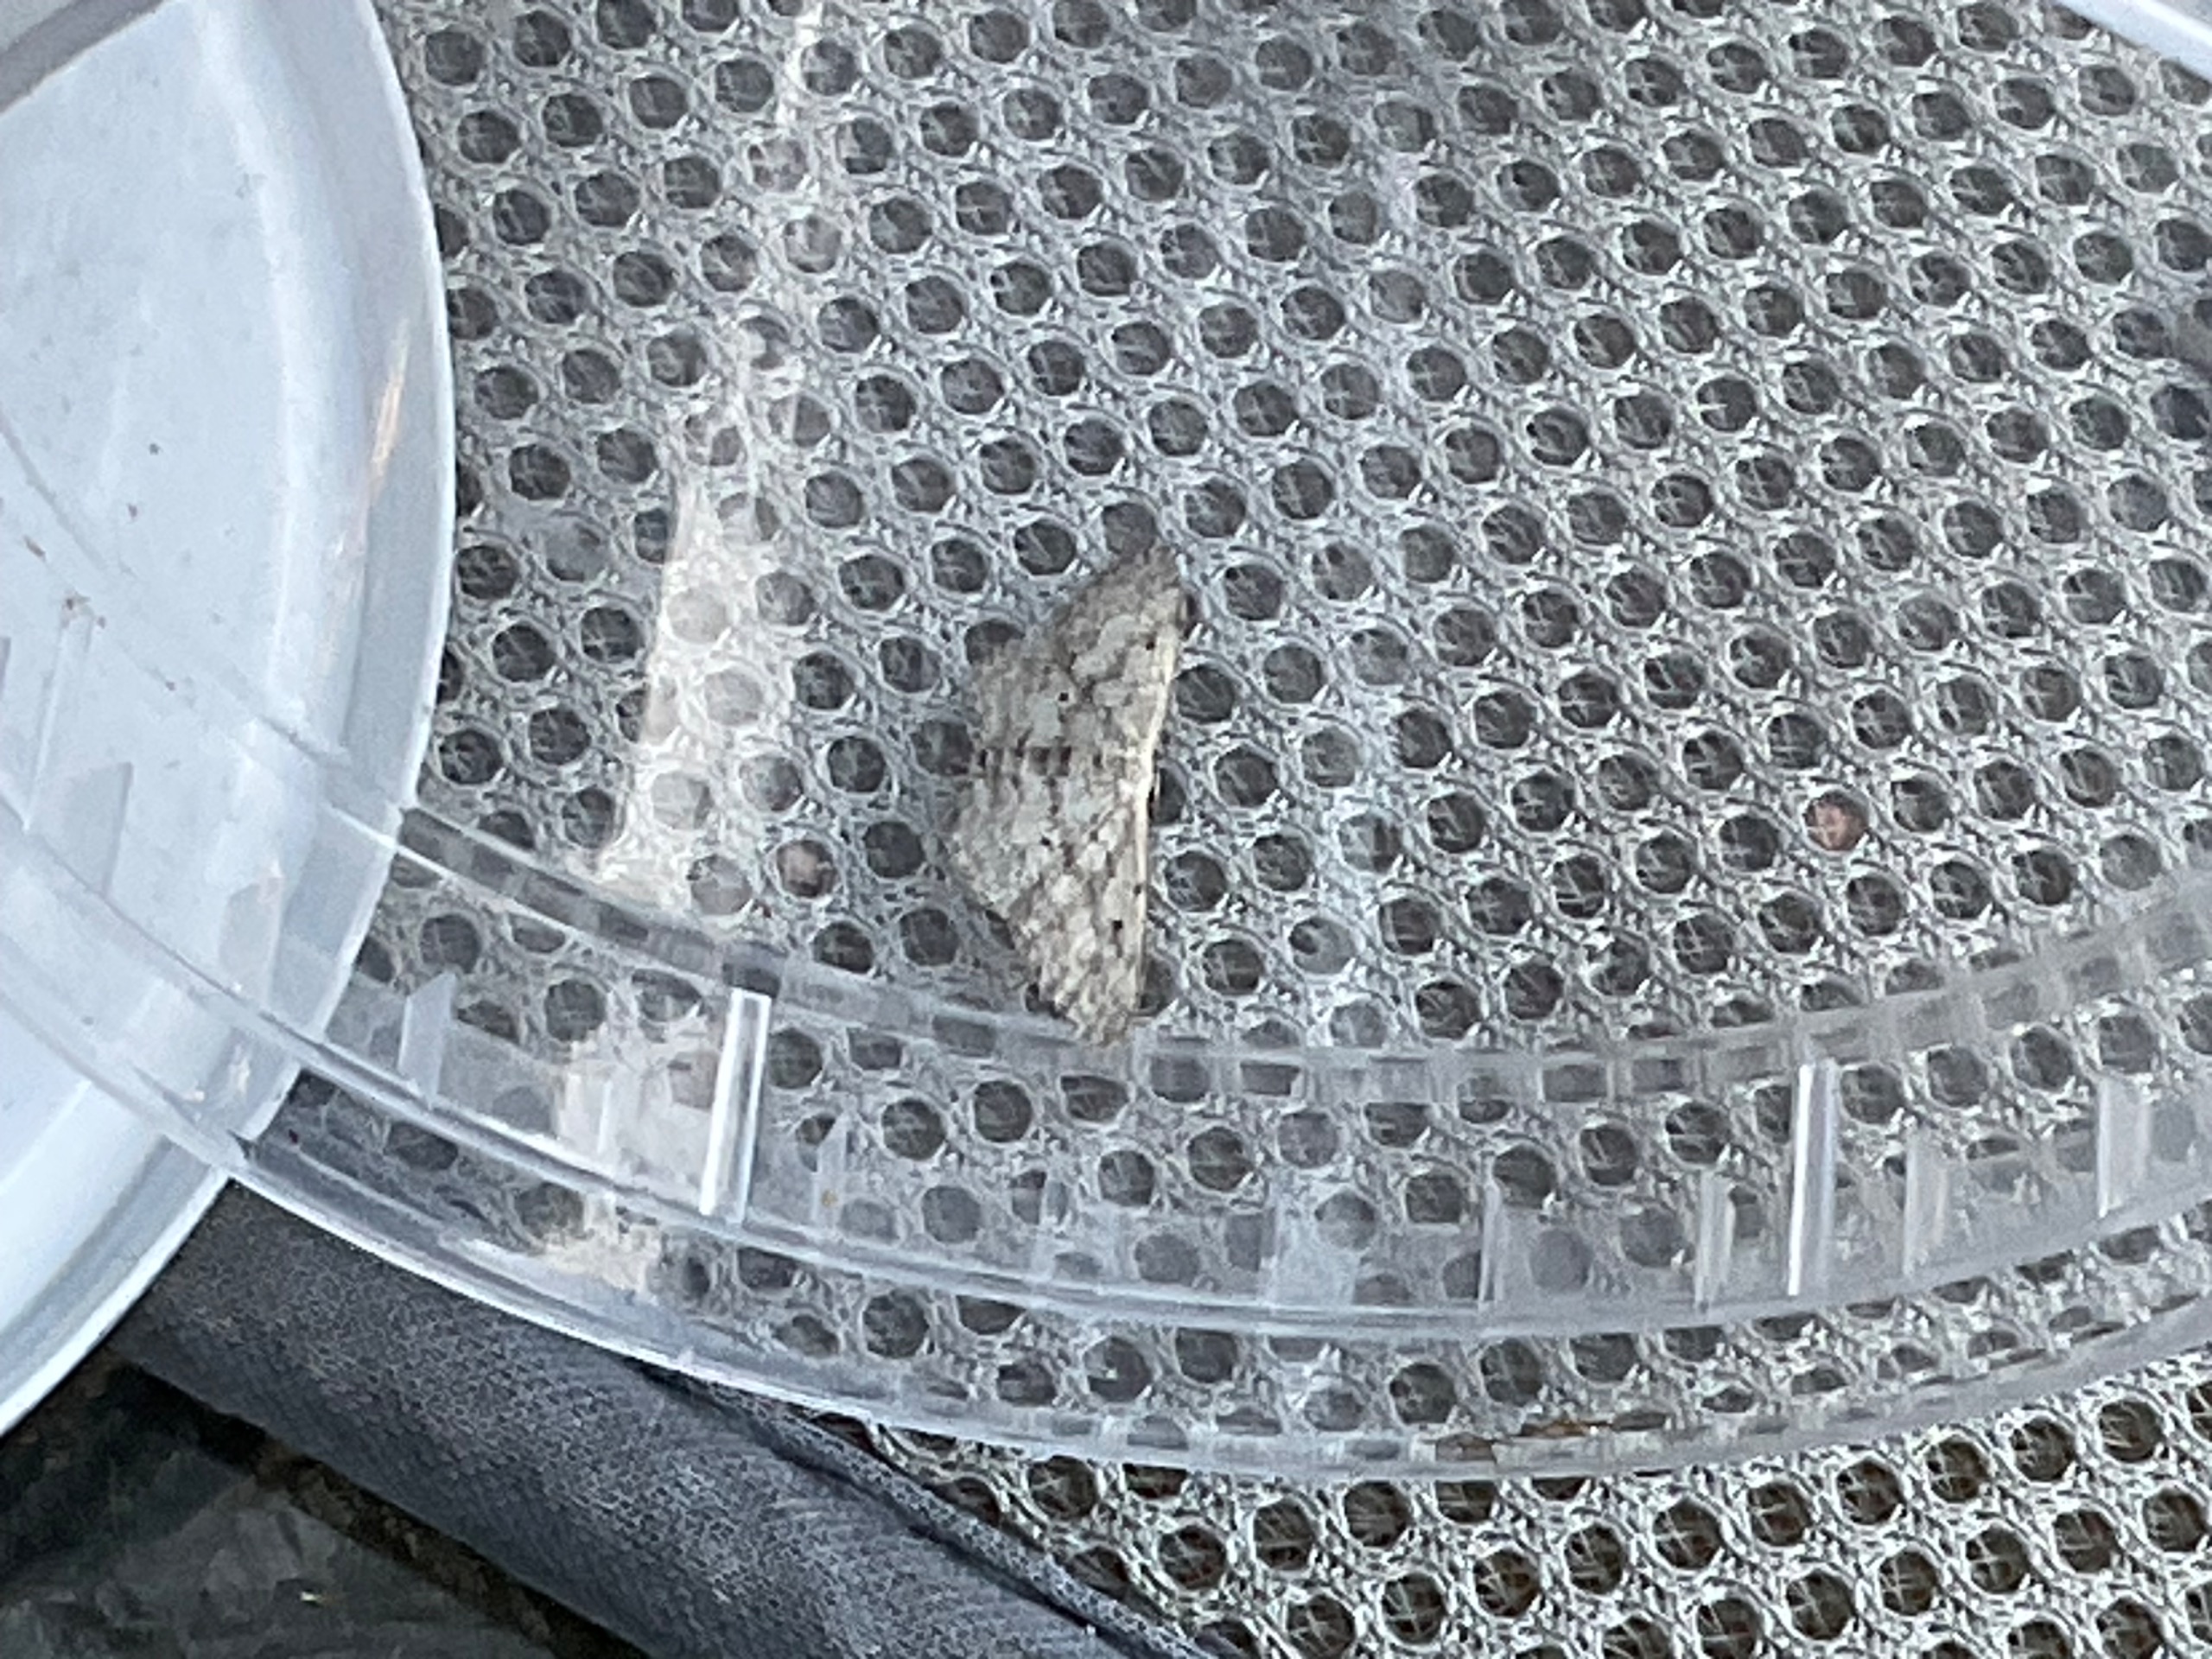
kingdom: Animalia
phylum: Arthropoda
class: Insecta
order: Lepidoptera
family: Geometridae
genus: Idaea
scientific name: Idaea seriata
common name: Gråplettet løvmåler
